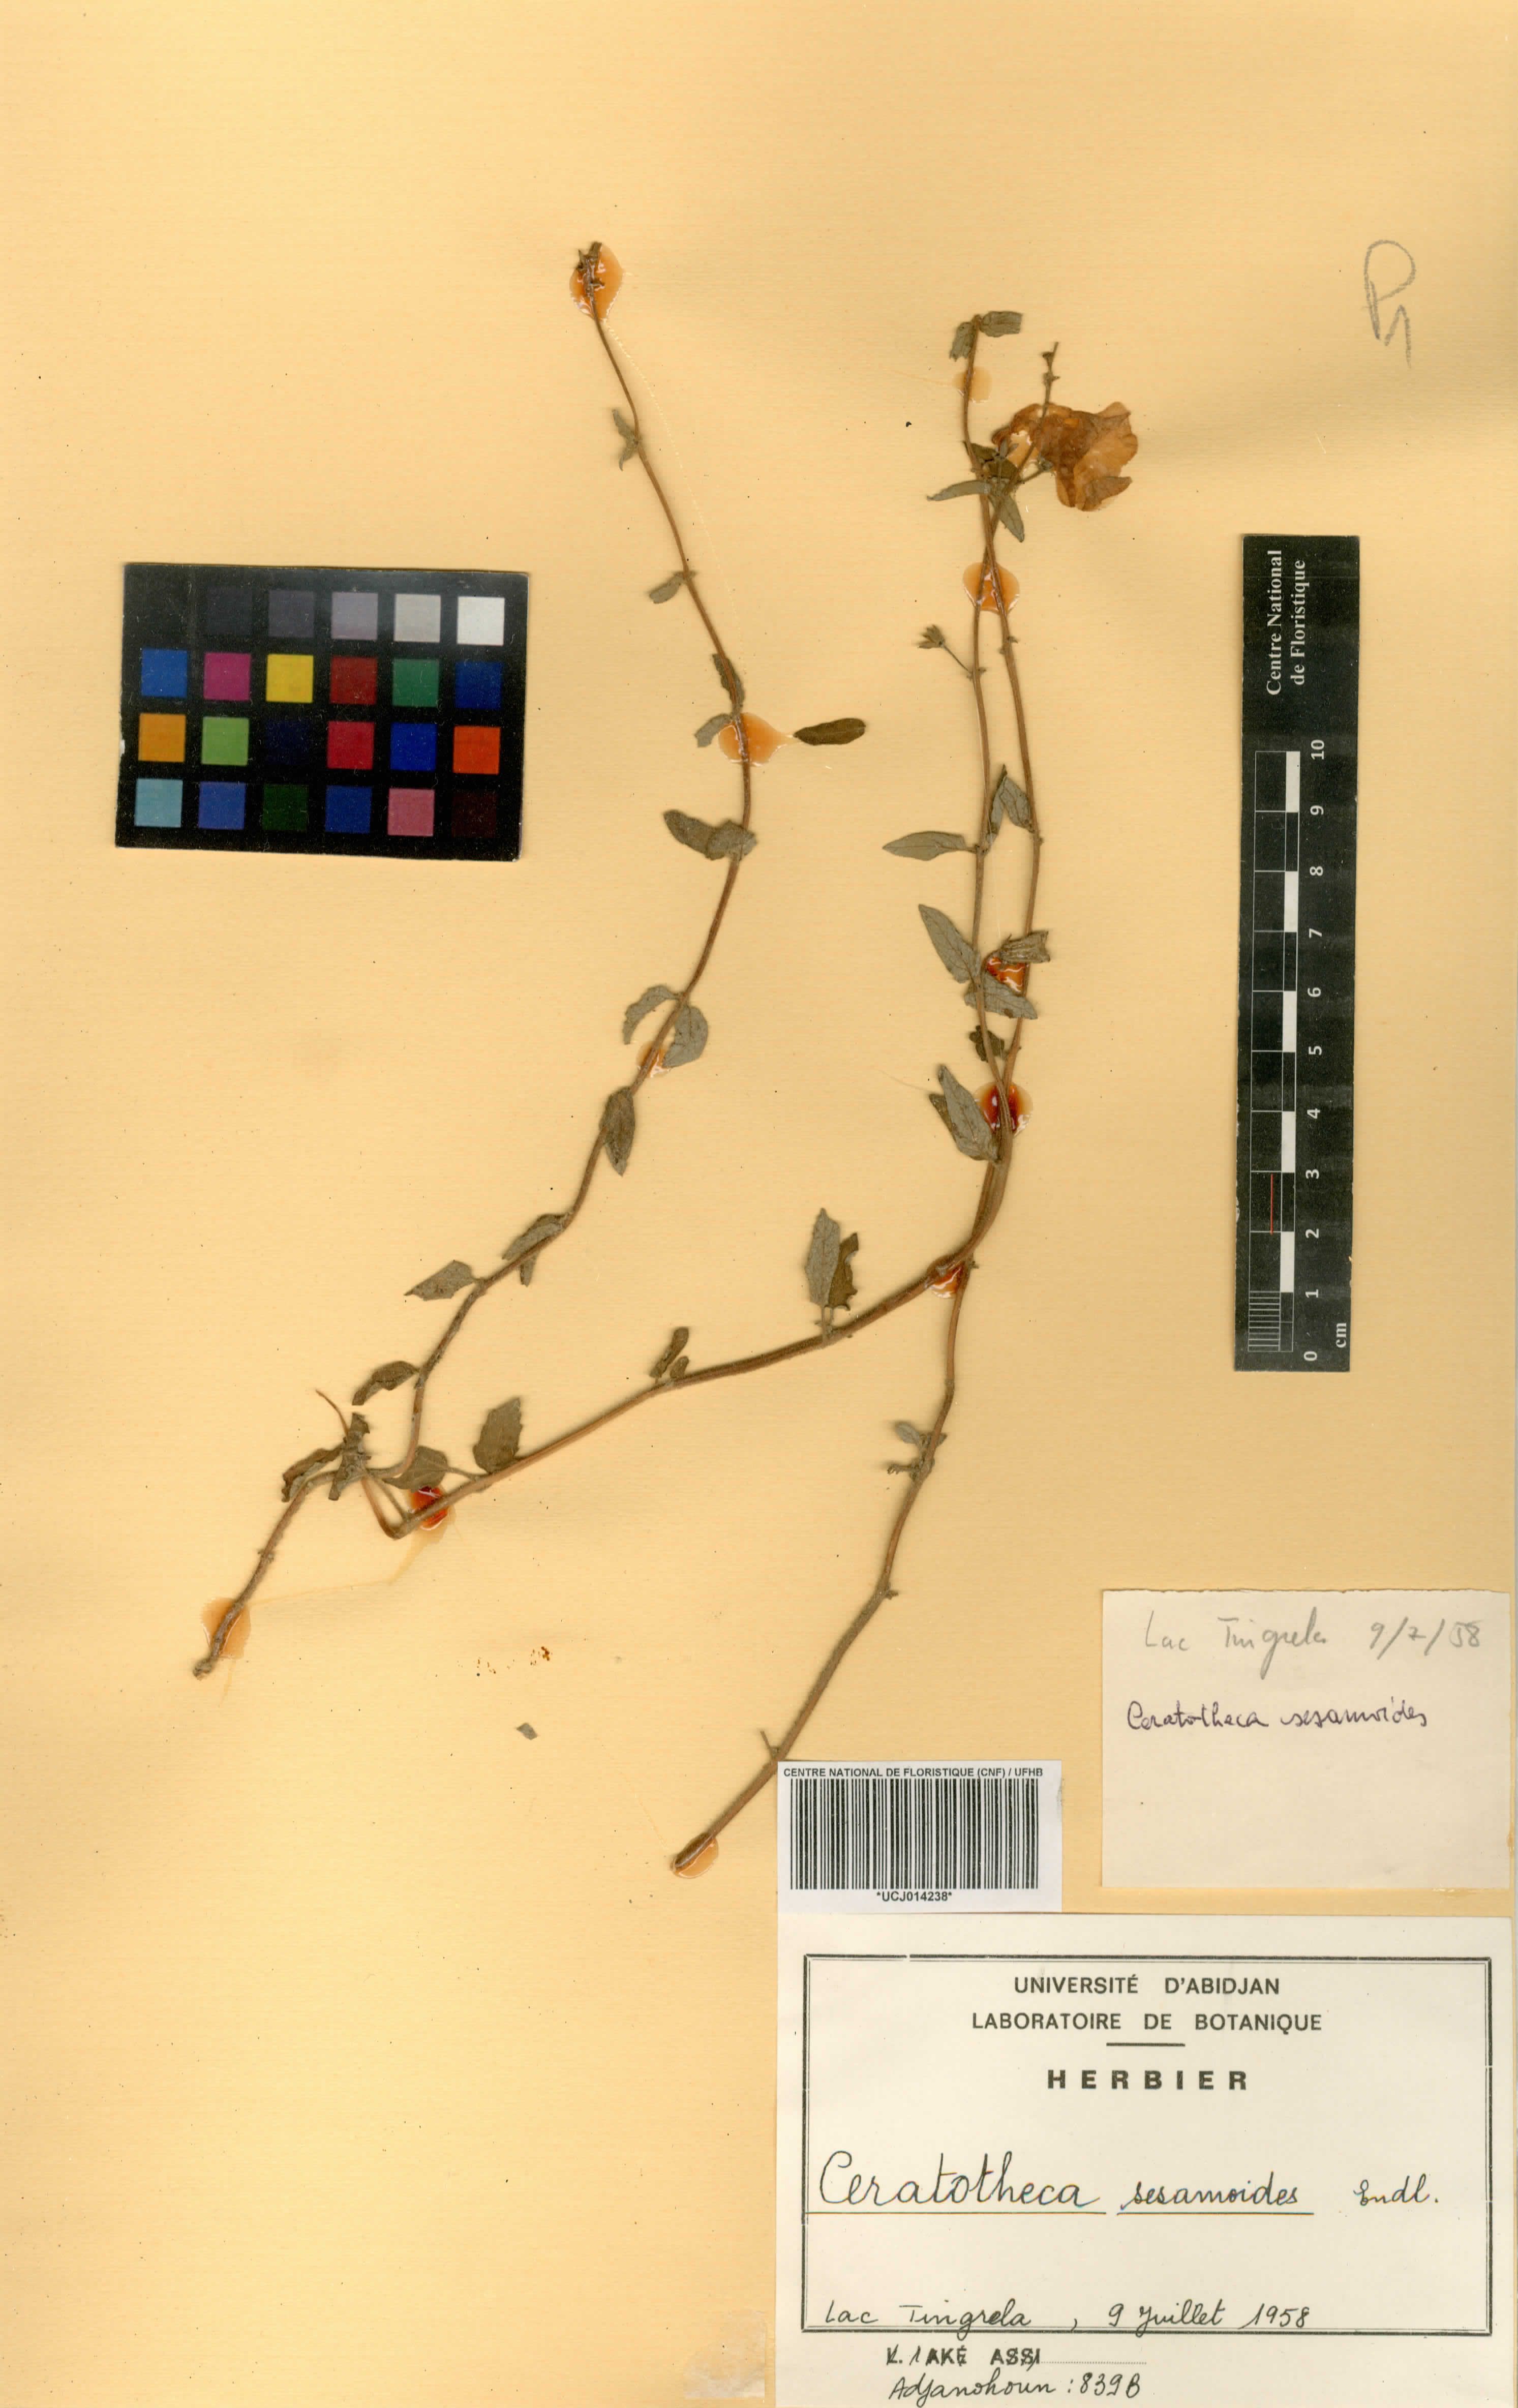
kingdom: Plantae
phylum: Tracheophyta
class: Magnoliopsida
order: Lamiales
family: Pedaliaceae
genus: Sesamum
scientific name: Sesamum sesamoides
